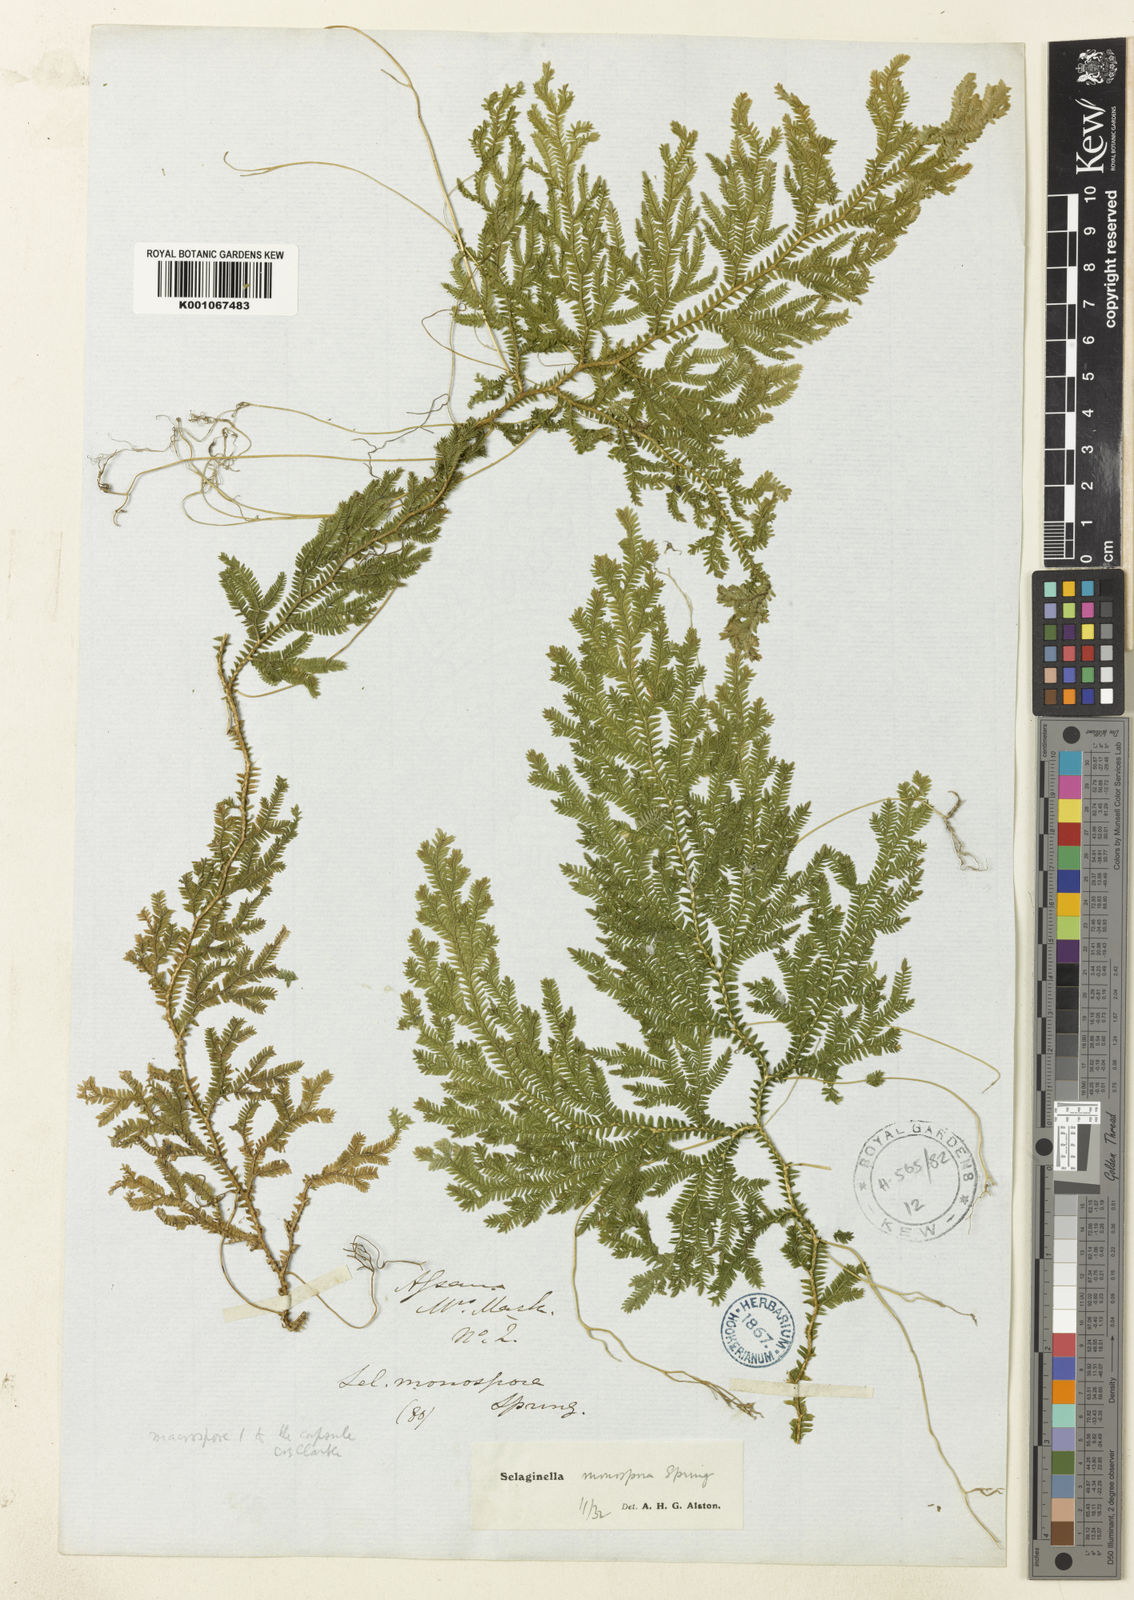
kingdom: Plantae
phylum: Tracheophyta
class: Lycopodiopsida
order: Selaginellales
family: Selaginellaceae
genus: Selaginella
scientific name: Selaginella monospora
